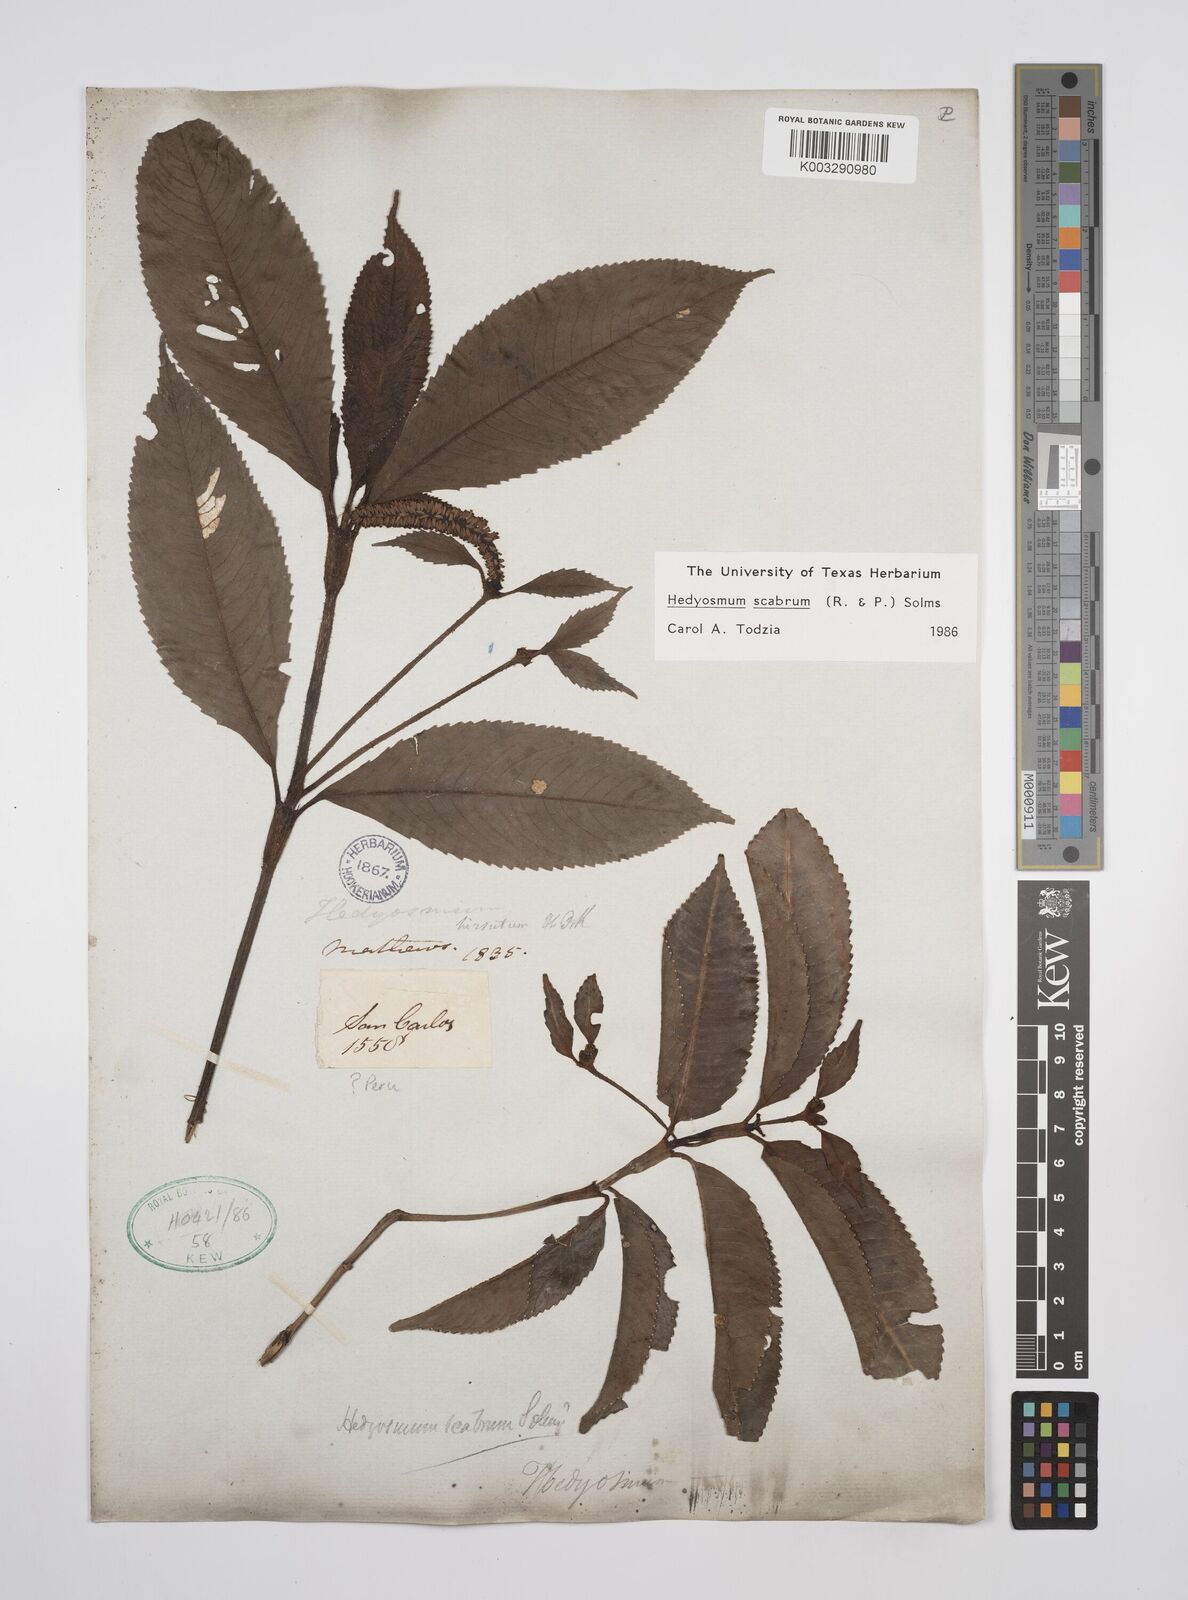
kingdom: Plantae
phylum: Tracheophyta
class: Magnoliopsida
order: Chloranthales
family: Chloranthaceae
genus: Hedyosmum
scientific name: Hedyosmum scabrum
